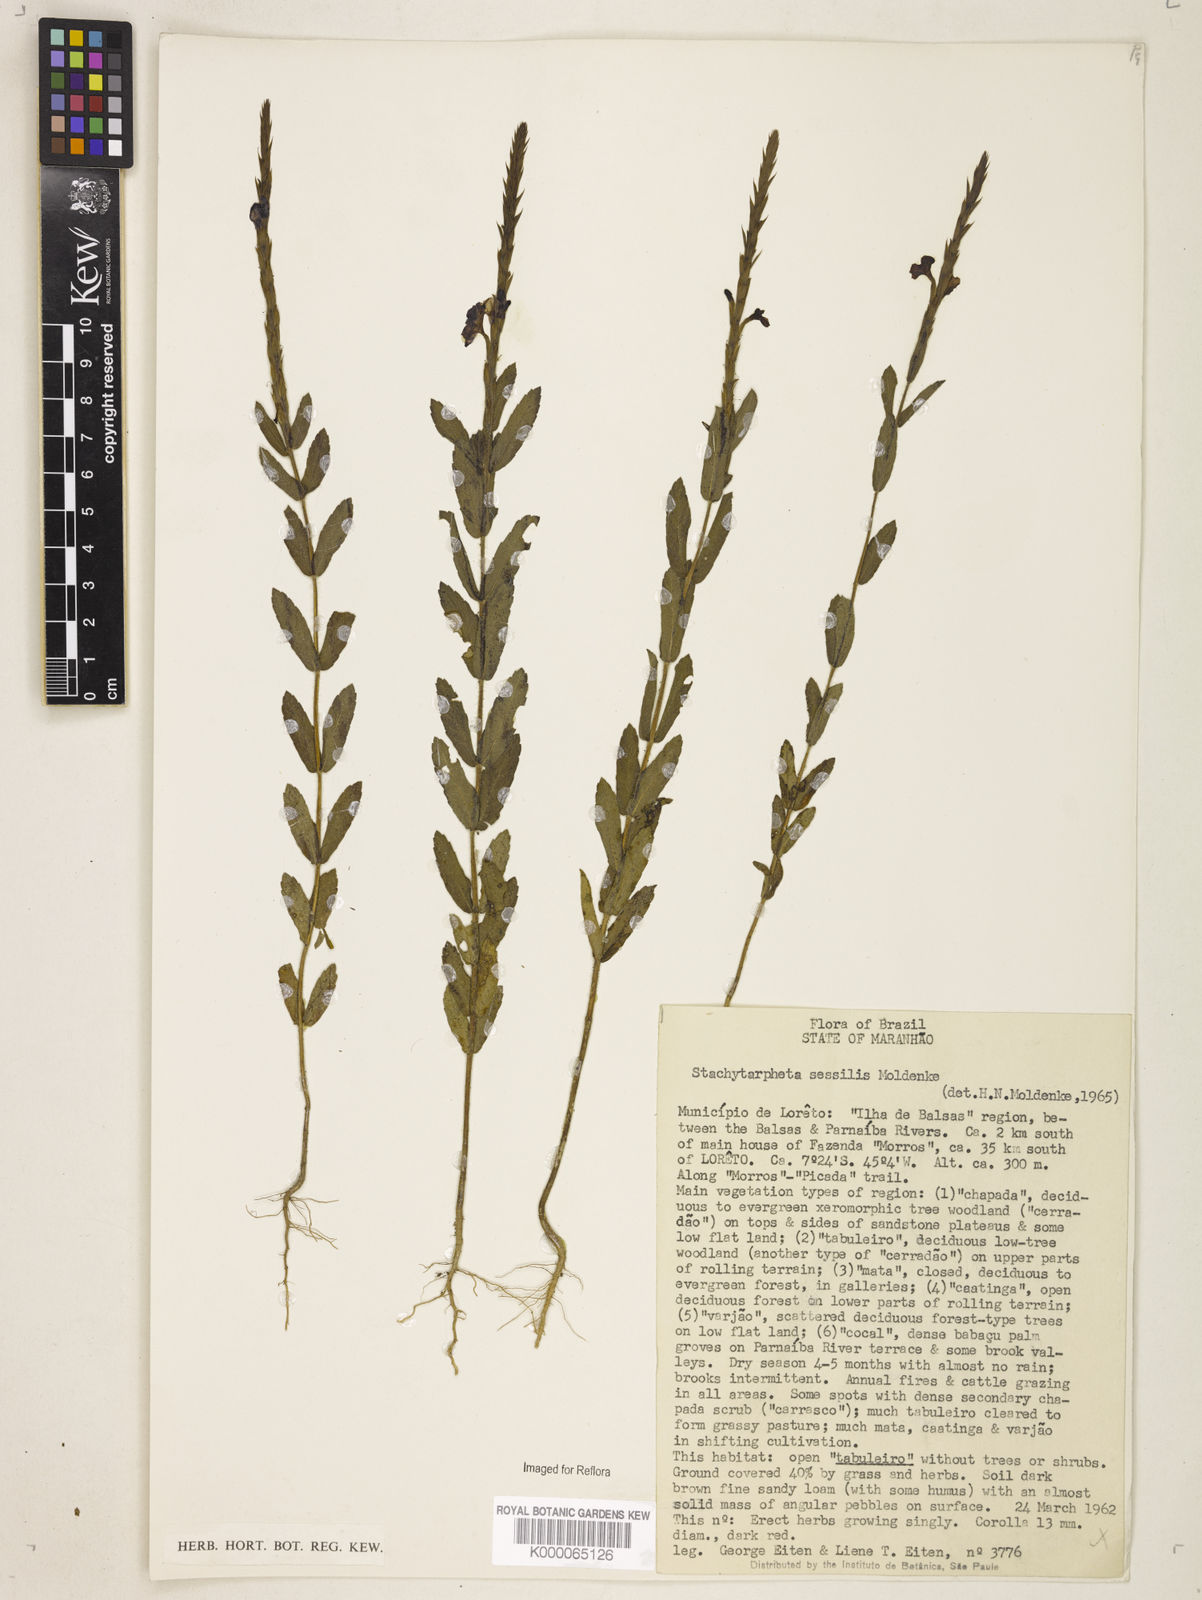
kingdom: Plantae
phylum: Tracheophyta
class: Magnoliopsida
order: Lamiales
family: Verbenaceae
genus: Stachytarpheta
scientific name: Stachytarpheta sessilis
